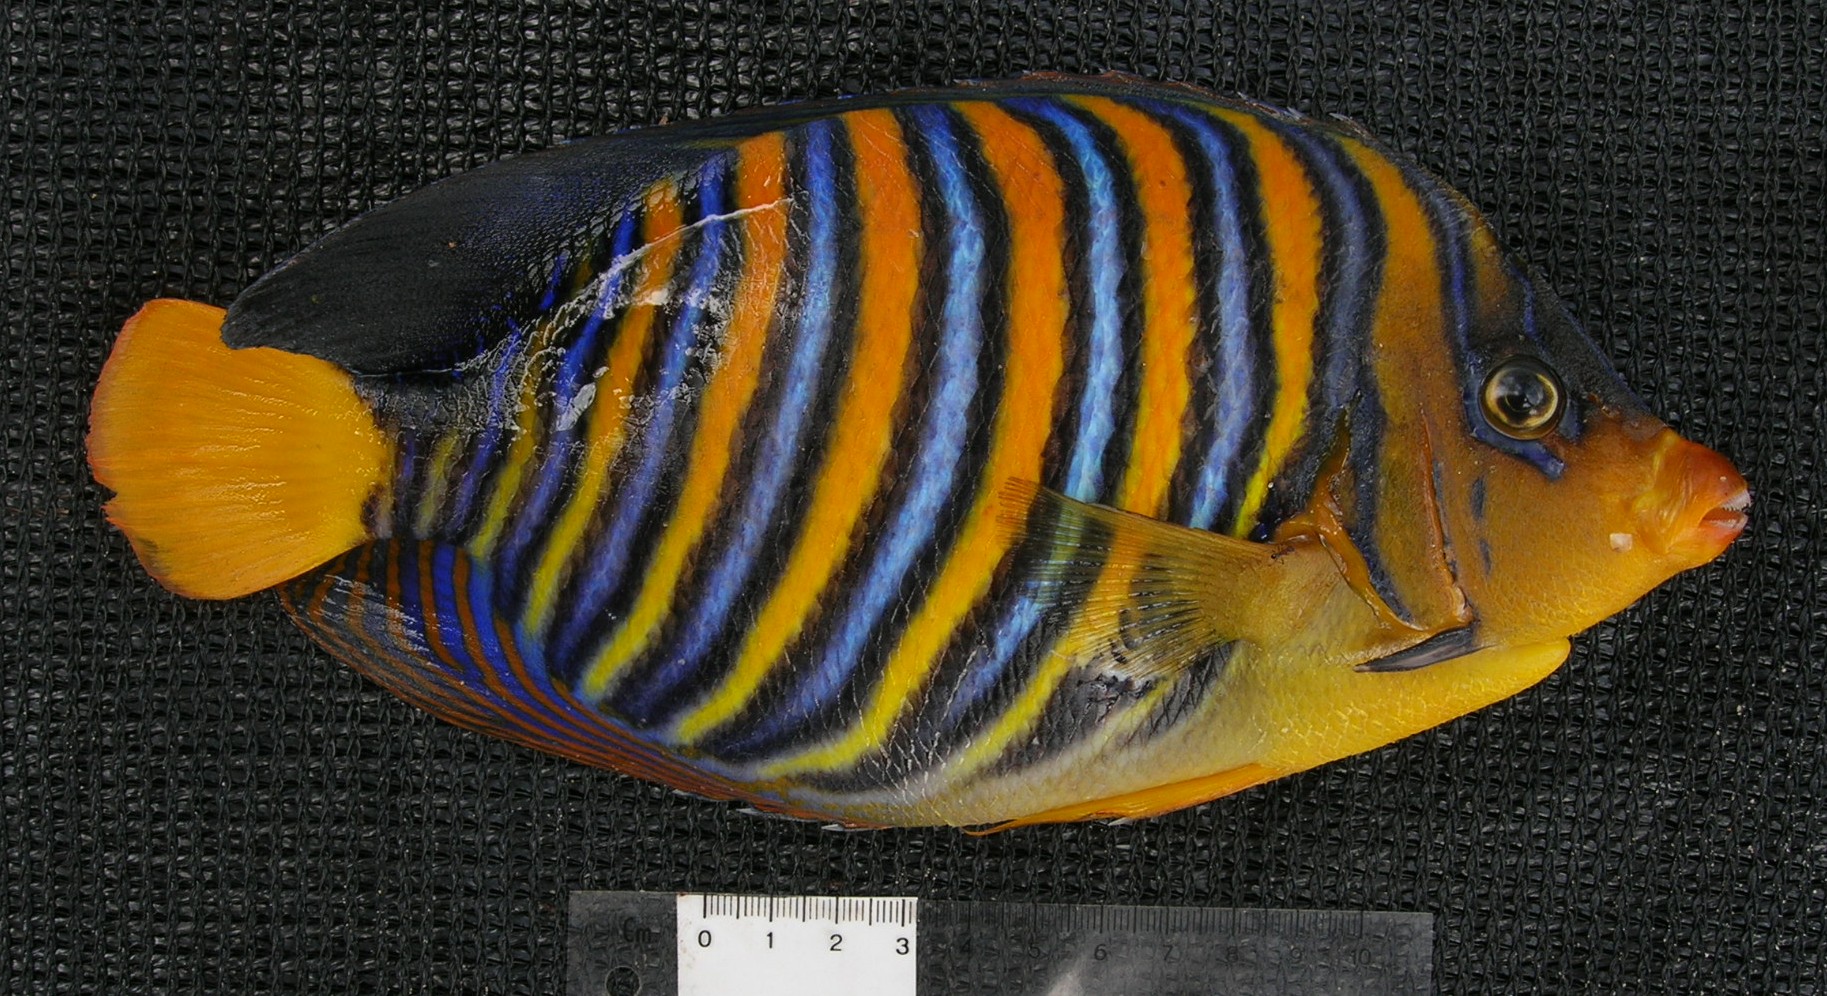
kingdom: Animalia
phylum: Chordata
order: Perciformes
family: Pomacanthidae
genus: Pygoplites
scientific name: Pygoplites diacanthus
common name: Regal angelfish
